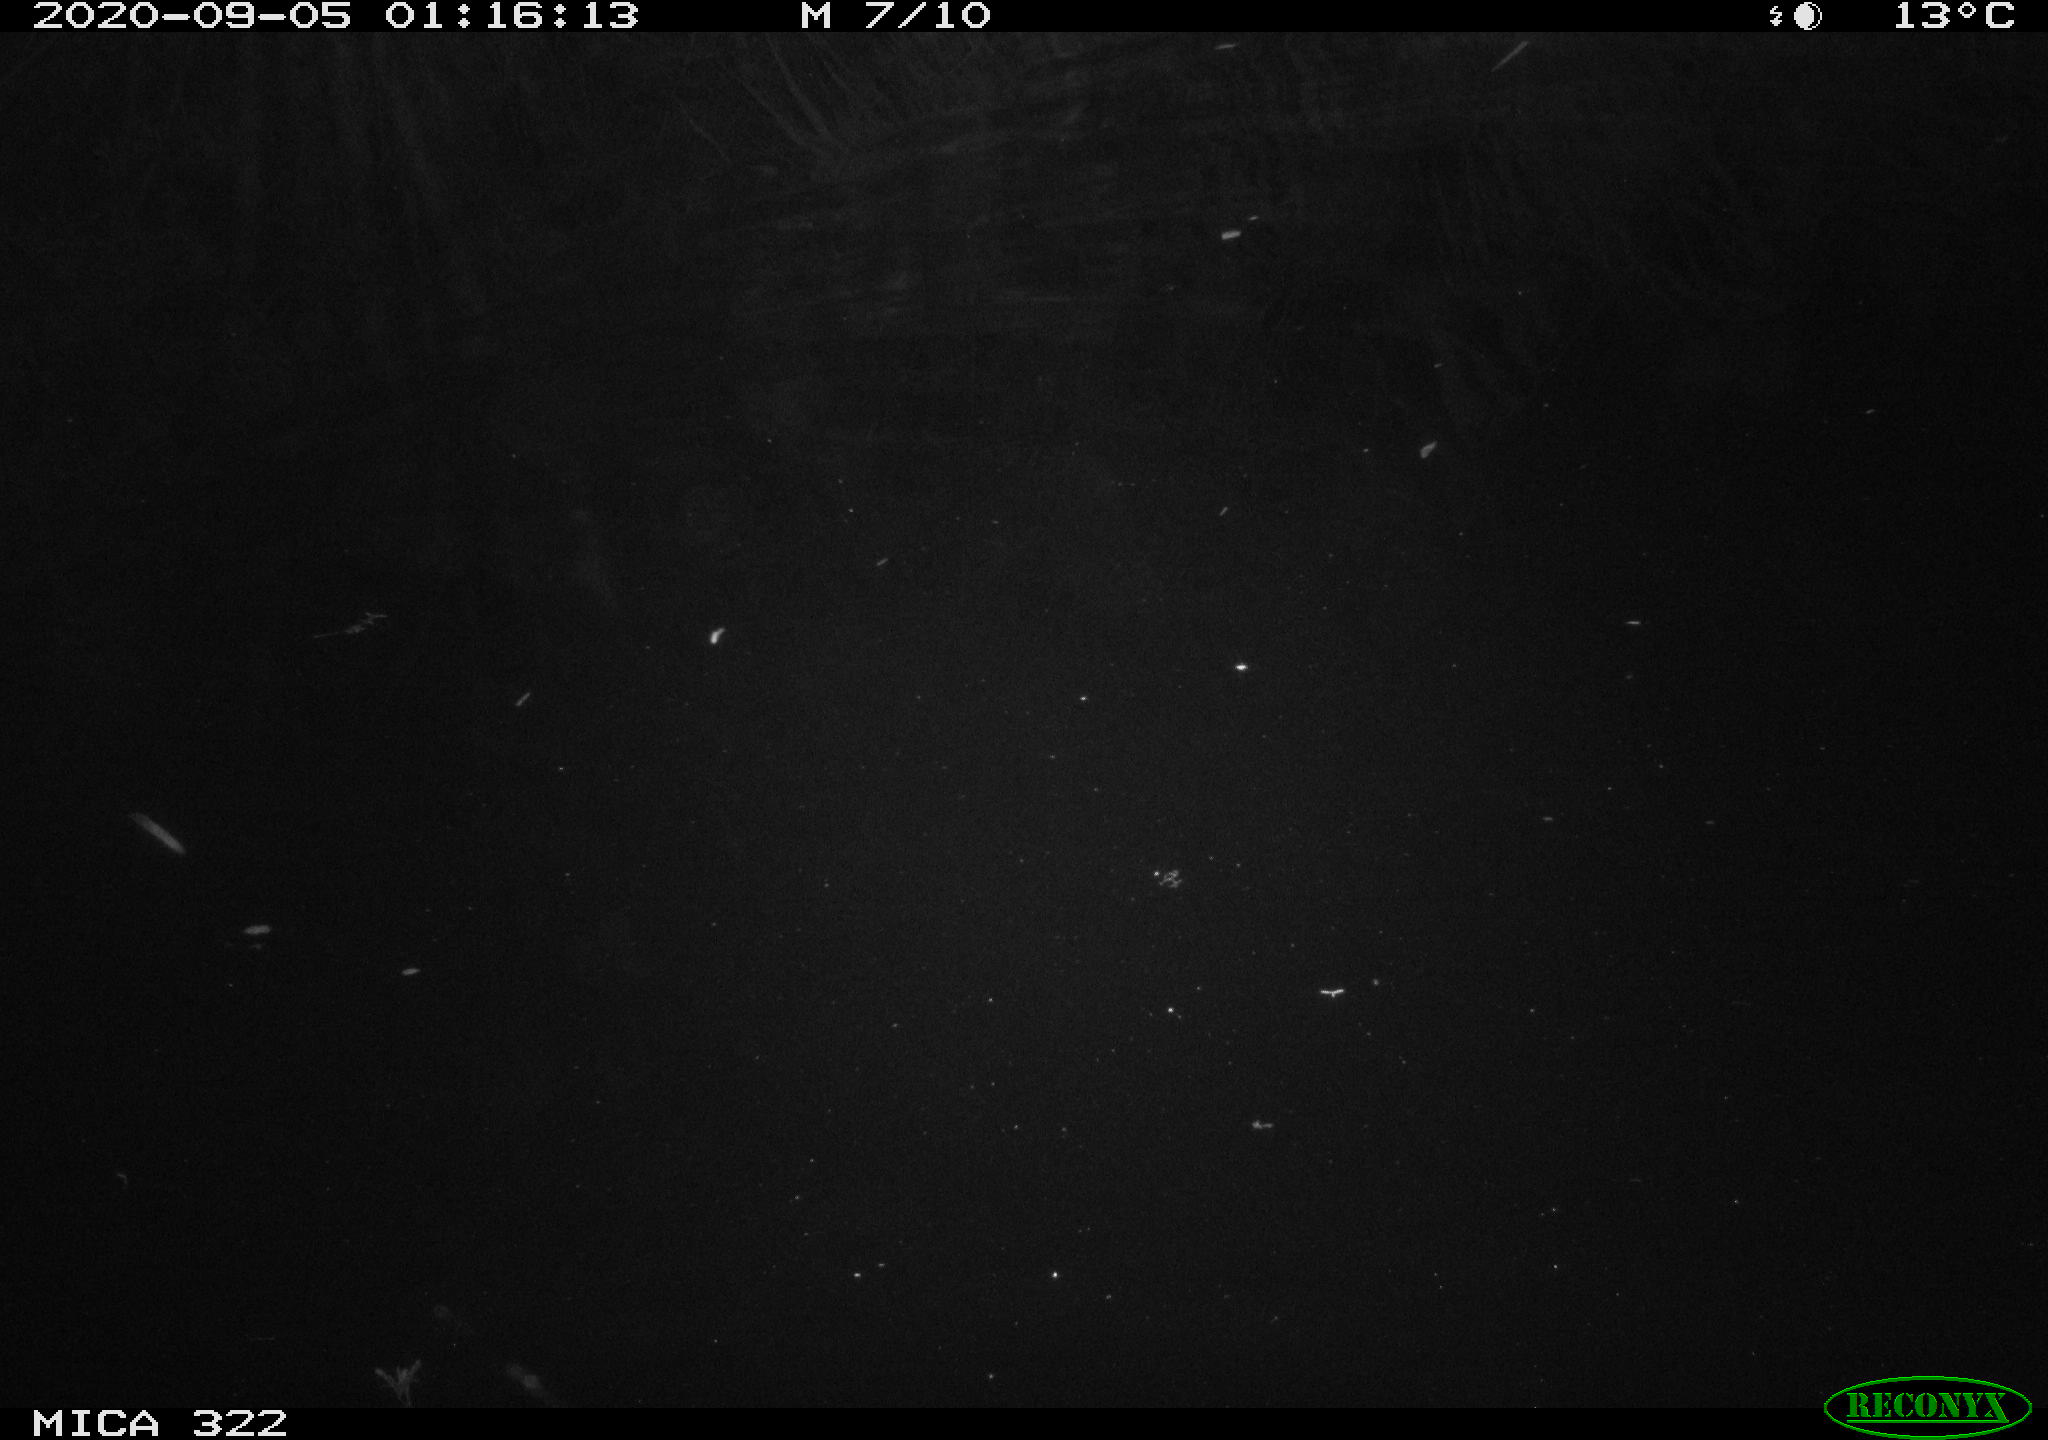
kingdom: Animalia
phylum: Chordata
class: Mammalia
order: Rodentia
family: Muridae
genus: Rattus
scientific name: Rattus norvegicus
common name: Brown rat
